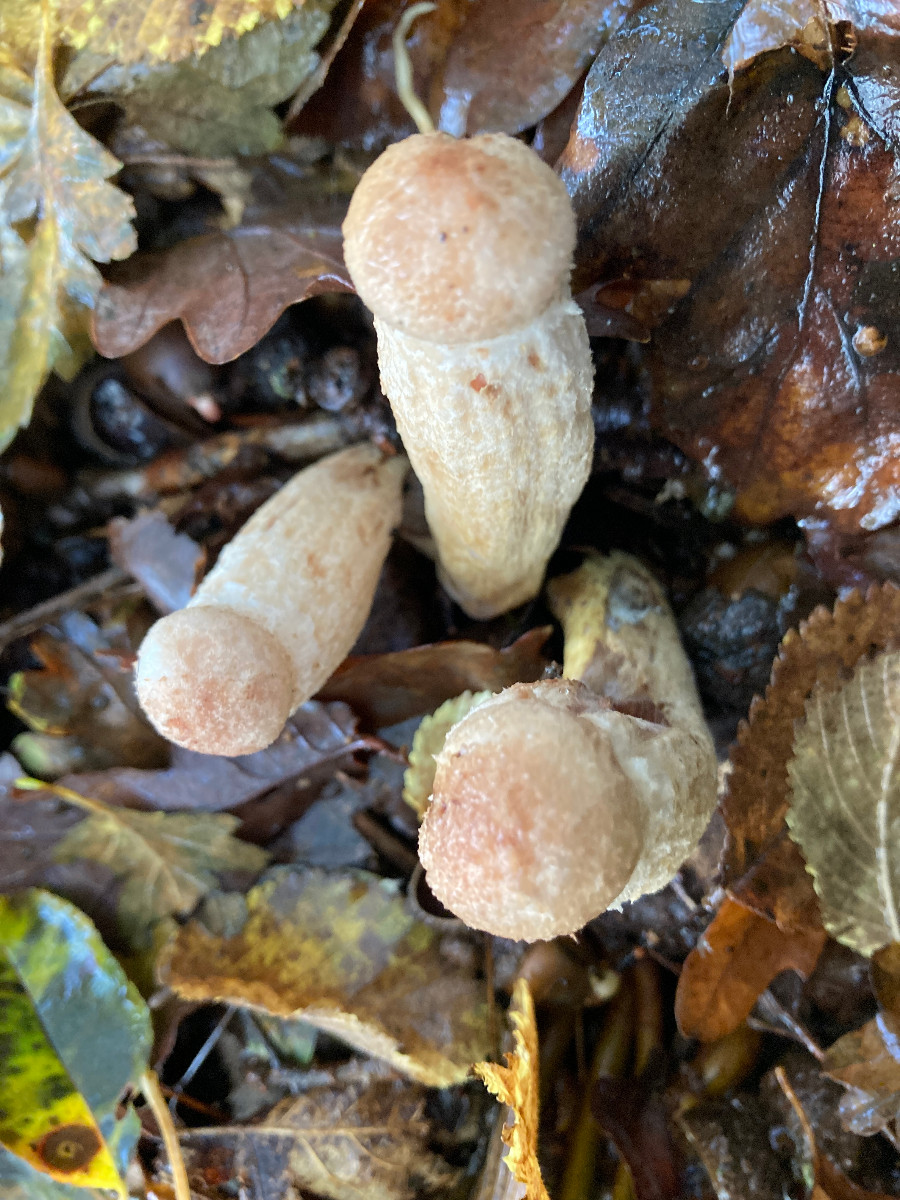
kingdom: Fungi
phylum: Basidiomycota
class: Agaricomycetes
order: Agaricales
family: Physalacriaceae
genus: Armillaria
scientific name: Armillaria lutea
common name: køllestokket honningsvamp
